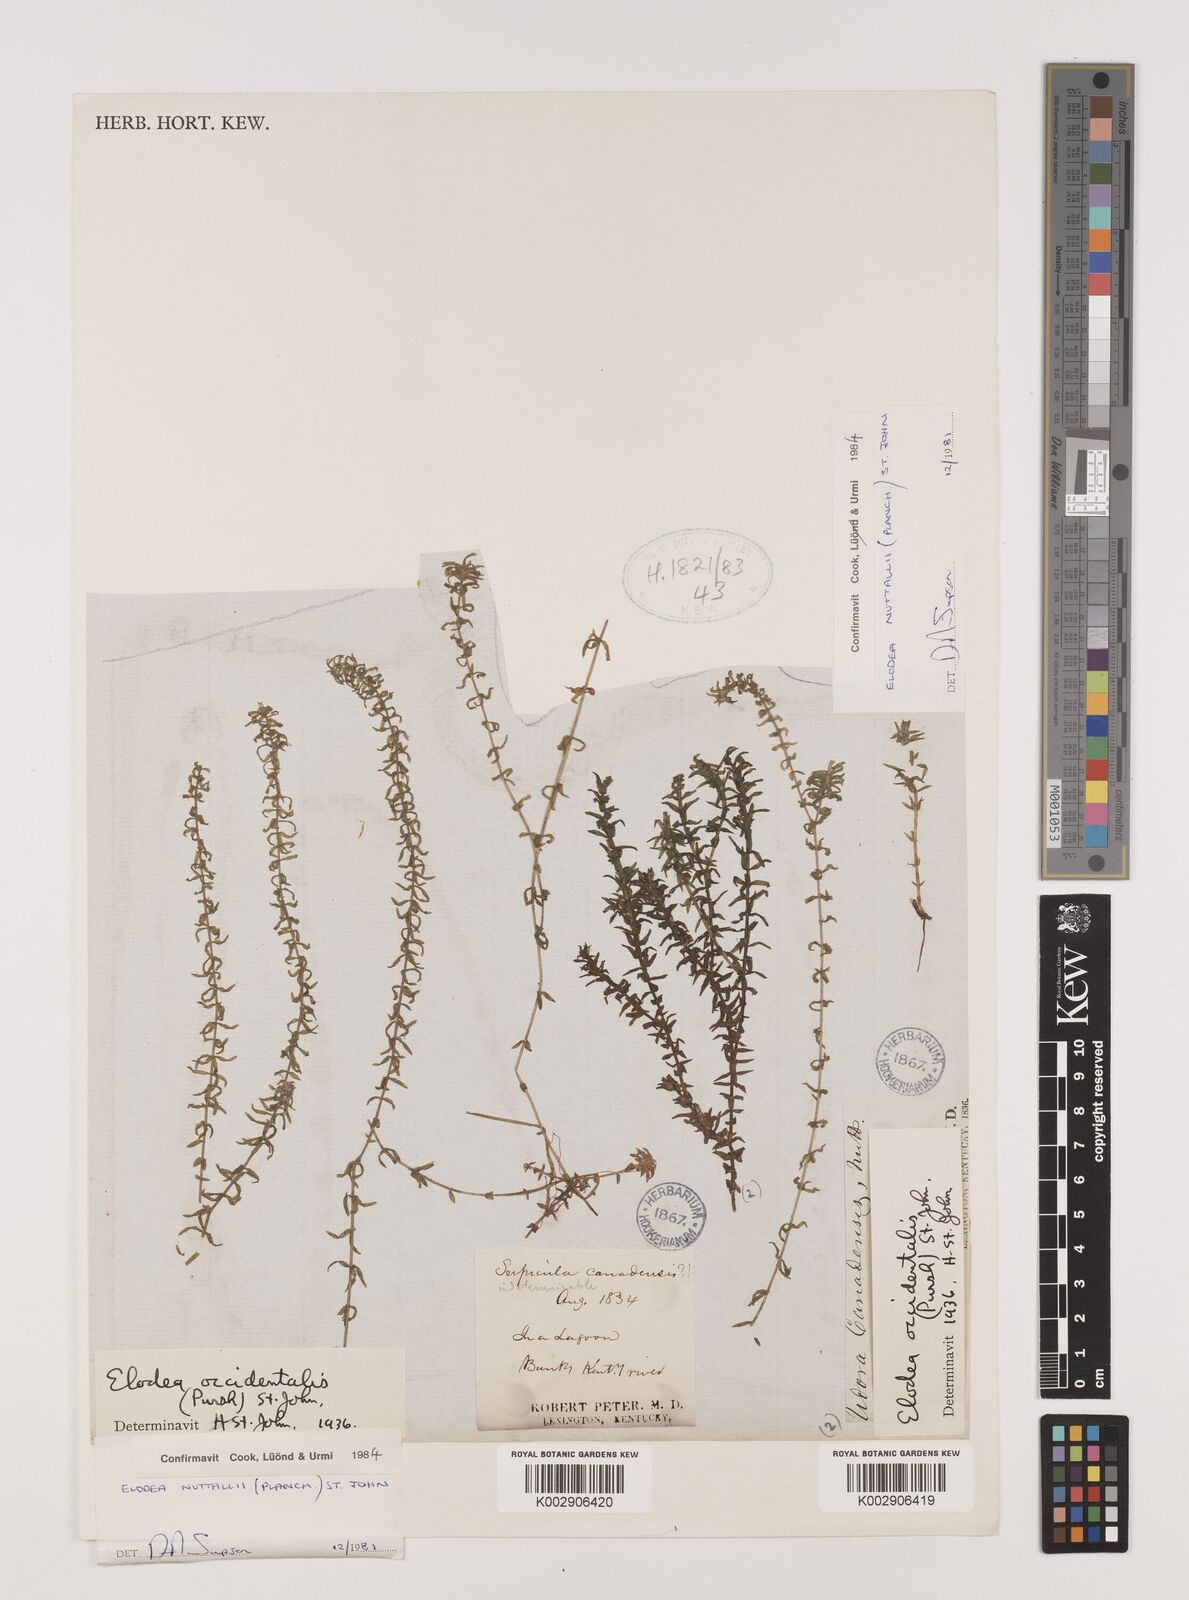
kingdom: Plantae
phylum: Tracheophyta
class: Liliopsida
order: Alismatales
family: Hydrocharitaceae
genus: Elodea
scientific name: Elodea nuttallii
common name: Nuttall's waterweed
